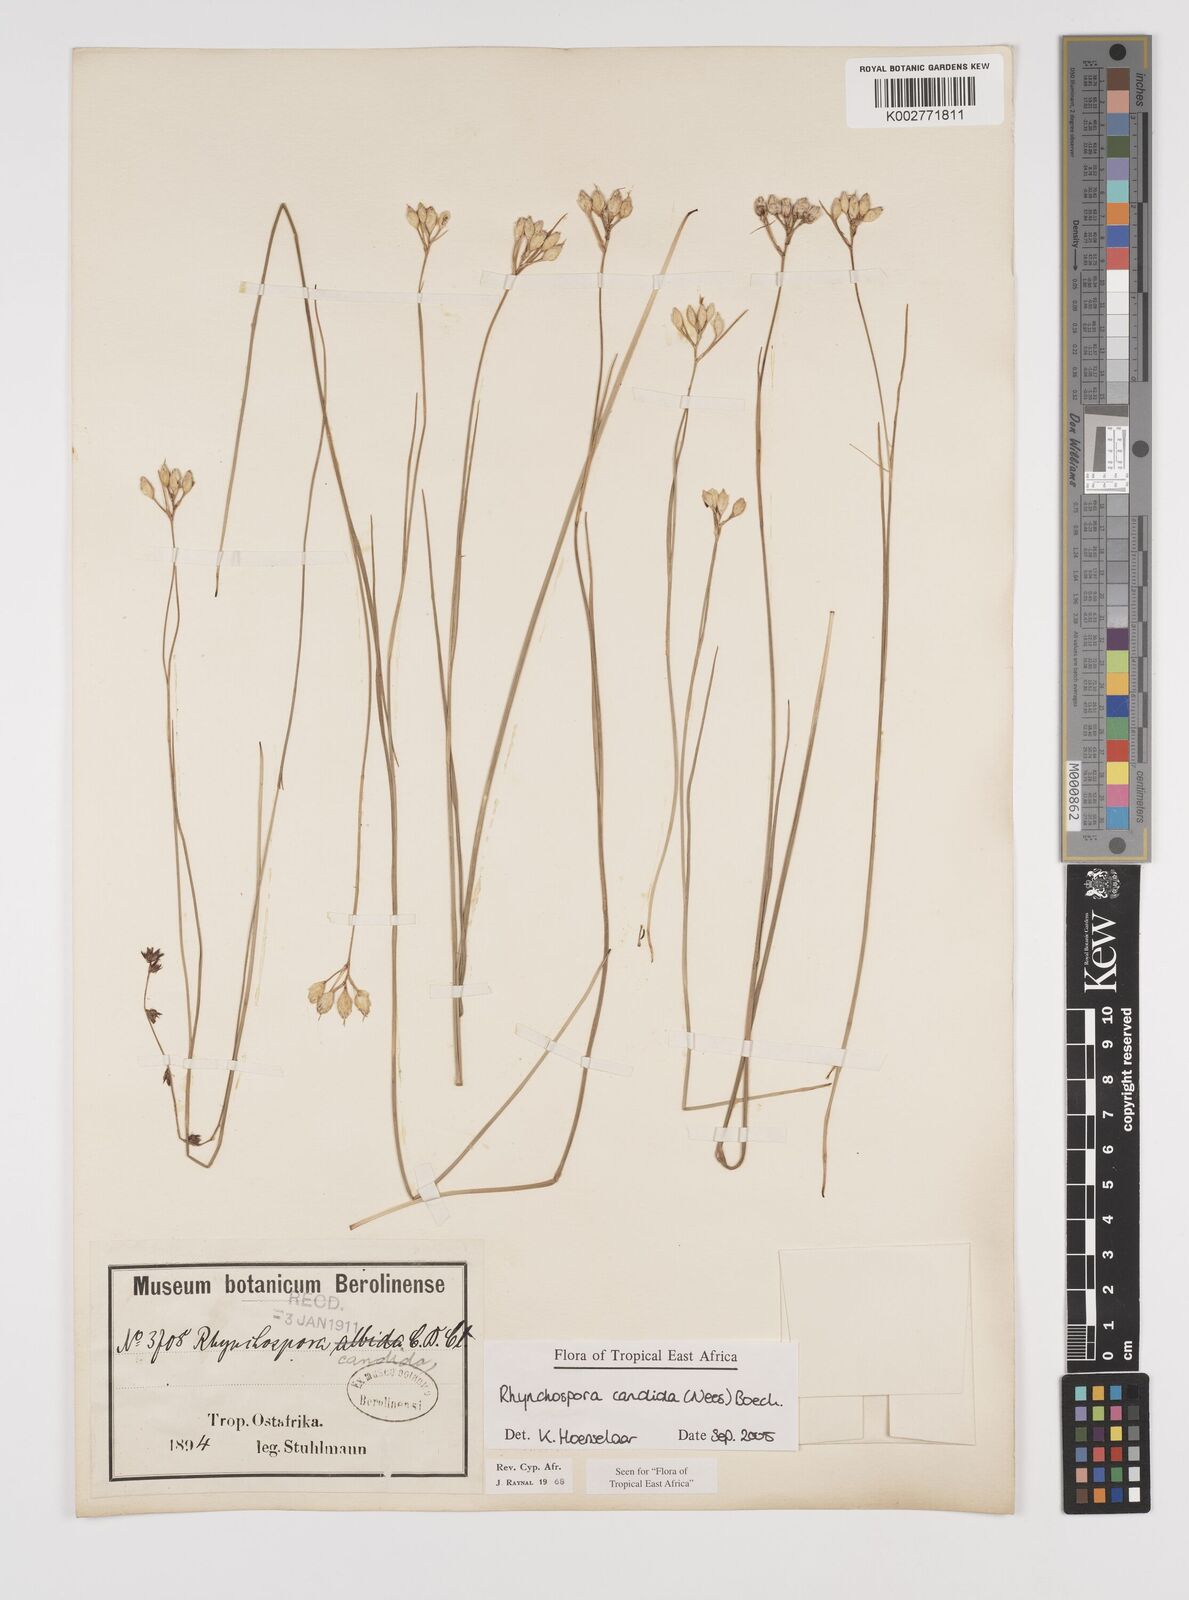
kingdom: Plantae
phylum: Tracheophyta
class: Liliopsida
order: Poales
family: Cyperaceae
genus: Rhynchospora
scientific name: Rhynchospora candida
